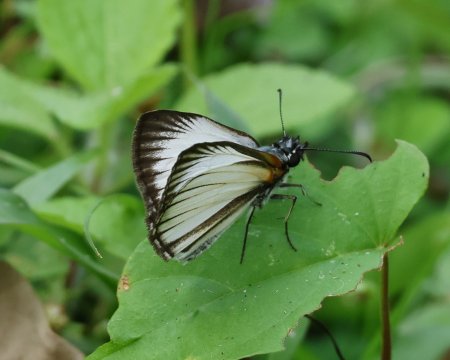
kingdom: Animalia
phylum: Arthropoda
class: Insecta
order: Lepidoptera
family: Hesperiidae
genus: Heliopetes
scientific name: Heliopetes arsalte
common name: Veined White-Skipper
